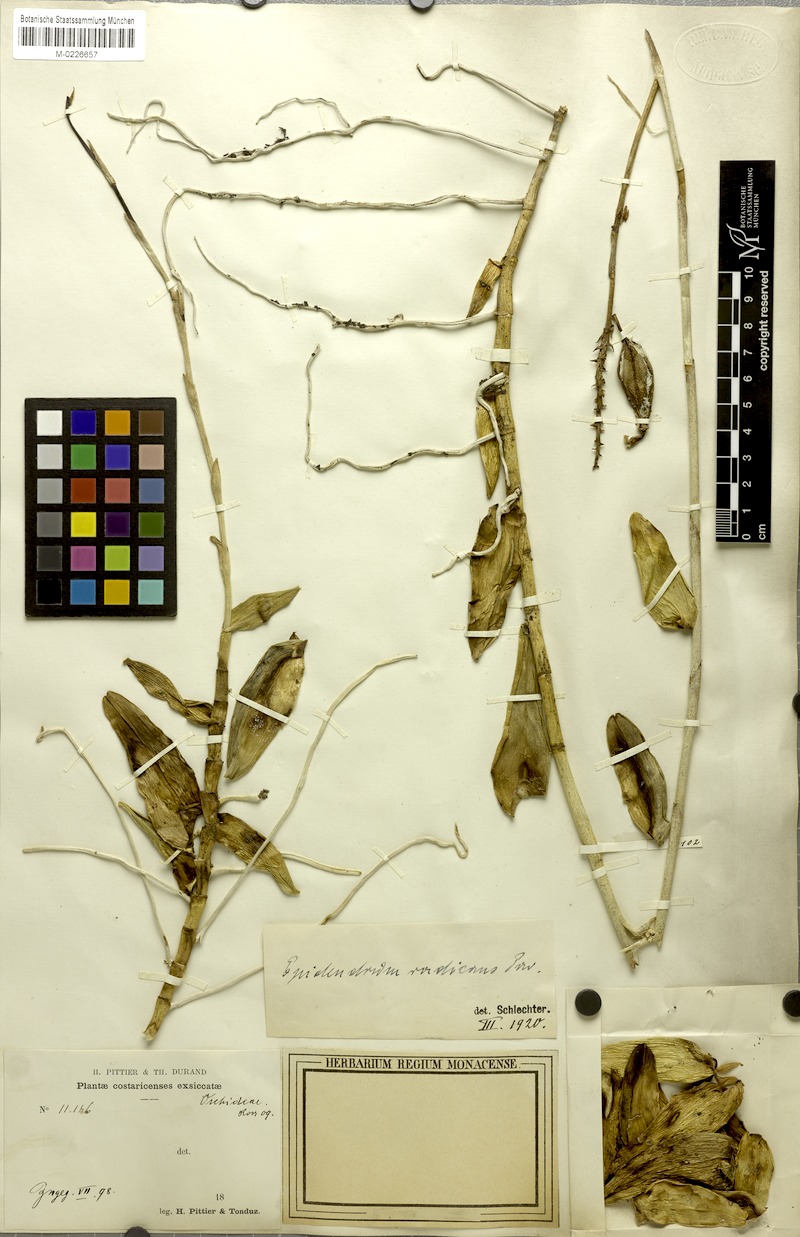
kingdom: Plantae
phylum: Tracheophyta
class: Liliopsida
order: Asparagales
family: Orchidaceae
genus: Epidendrum
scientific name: Epidendrum radicans
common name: Fire star orchid
